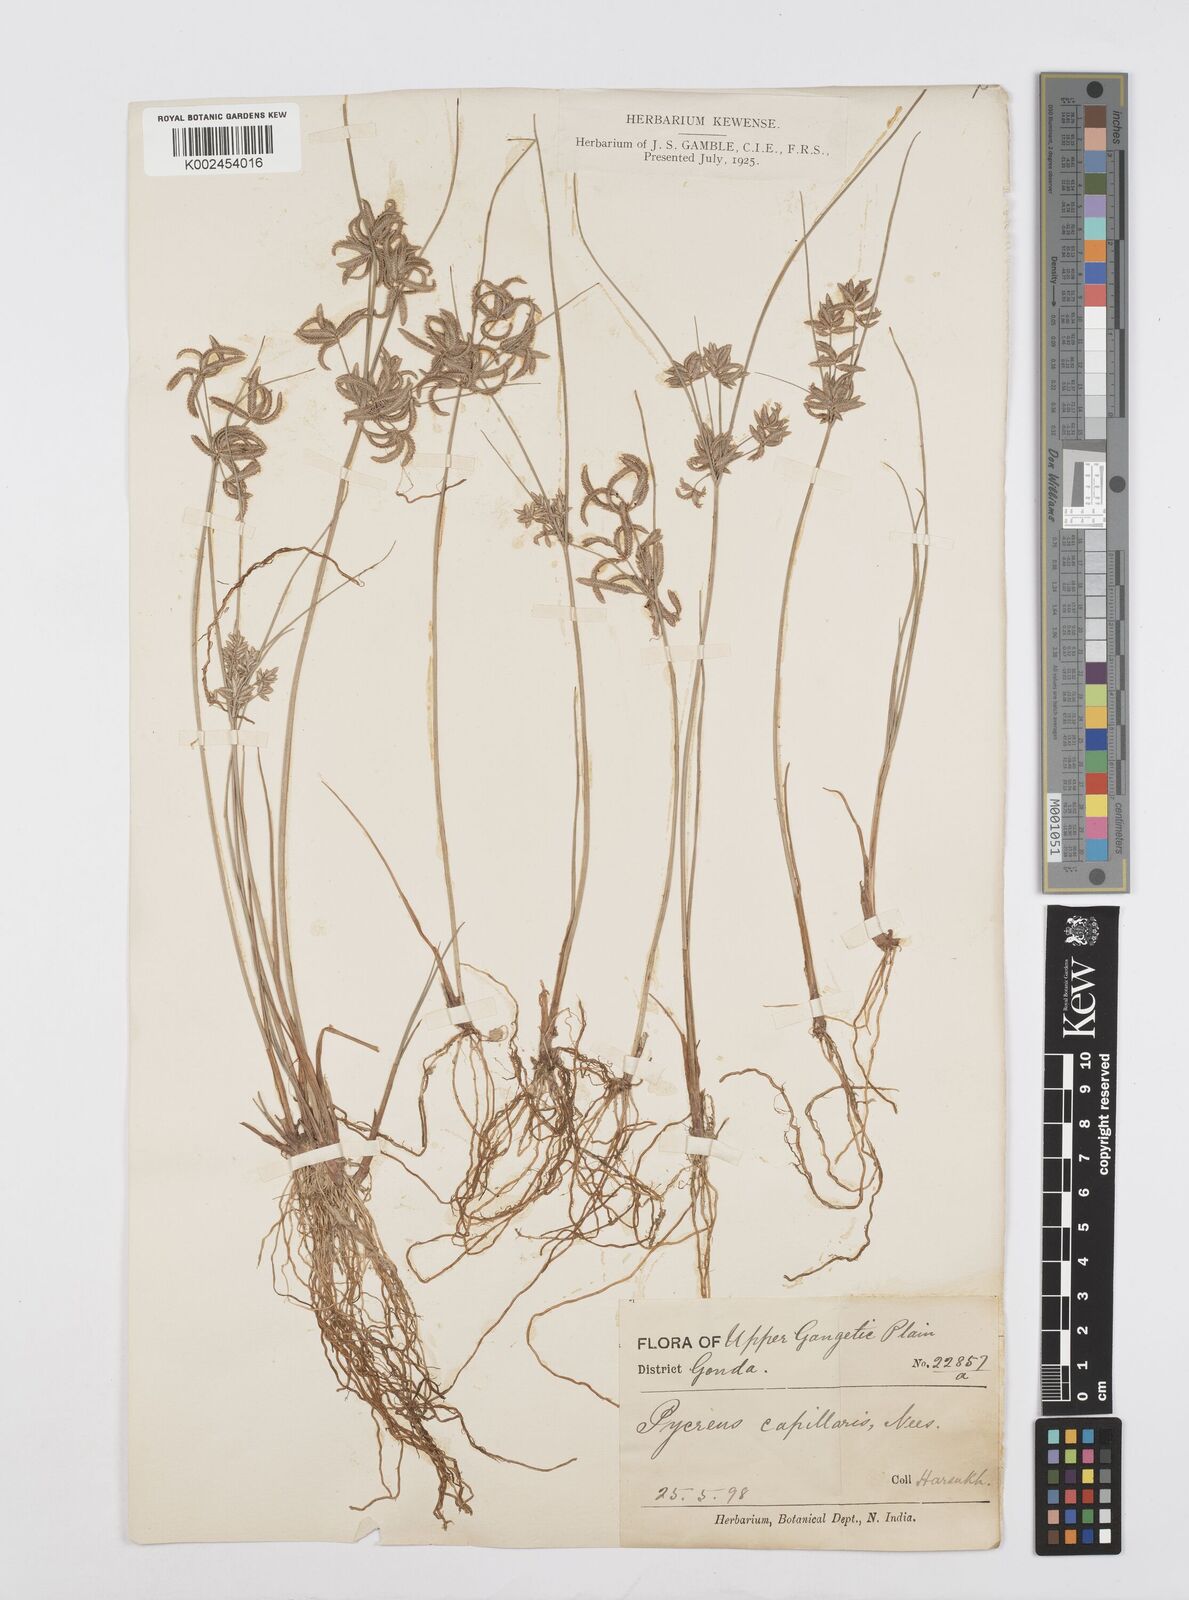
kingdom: Plantae
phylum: Tracheophyta
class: Liliopsida
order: Poales
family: Cyperaceae
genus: Cyperus
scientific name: Cyperus flavidus
